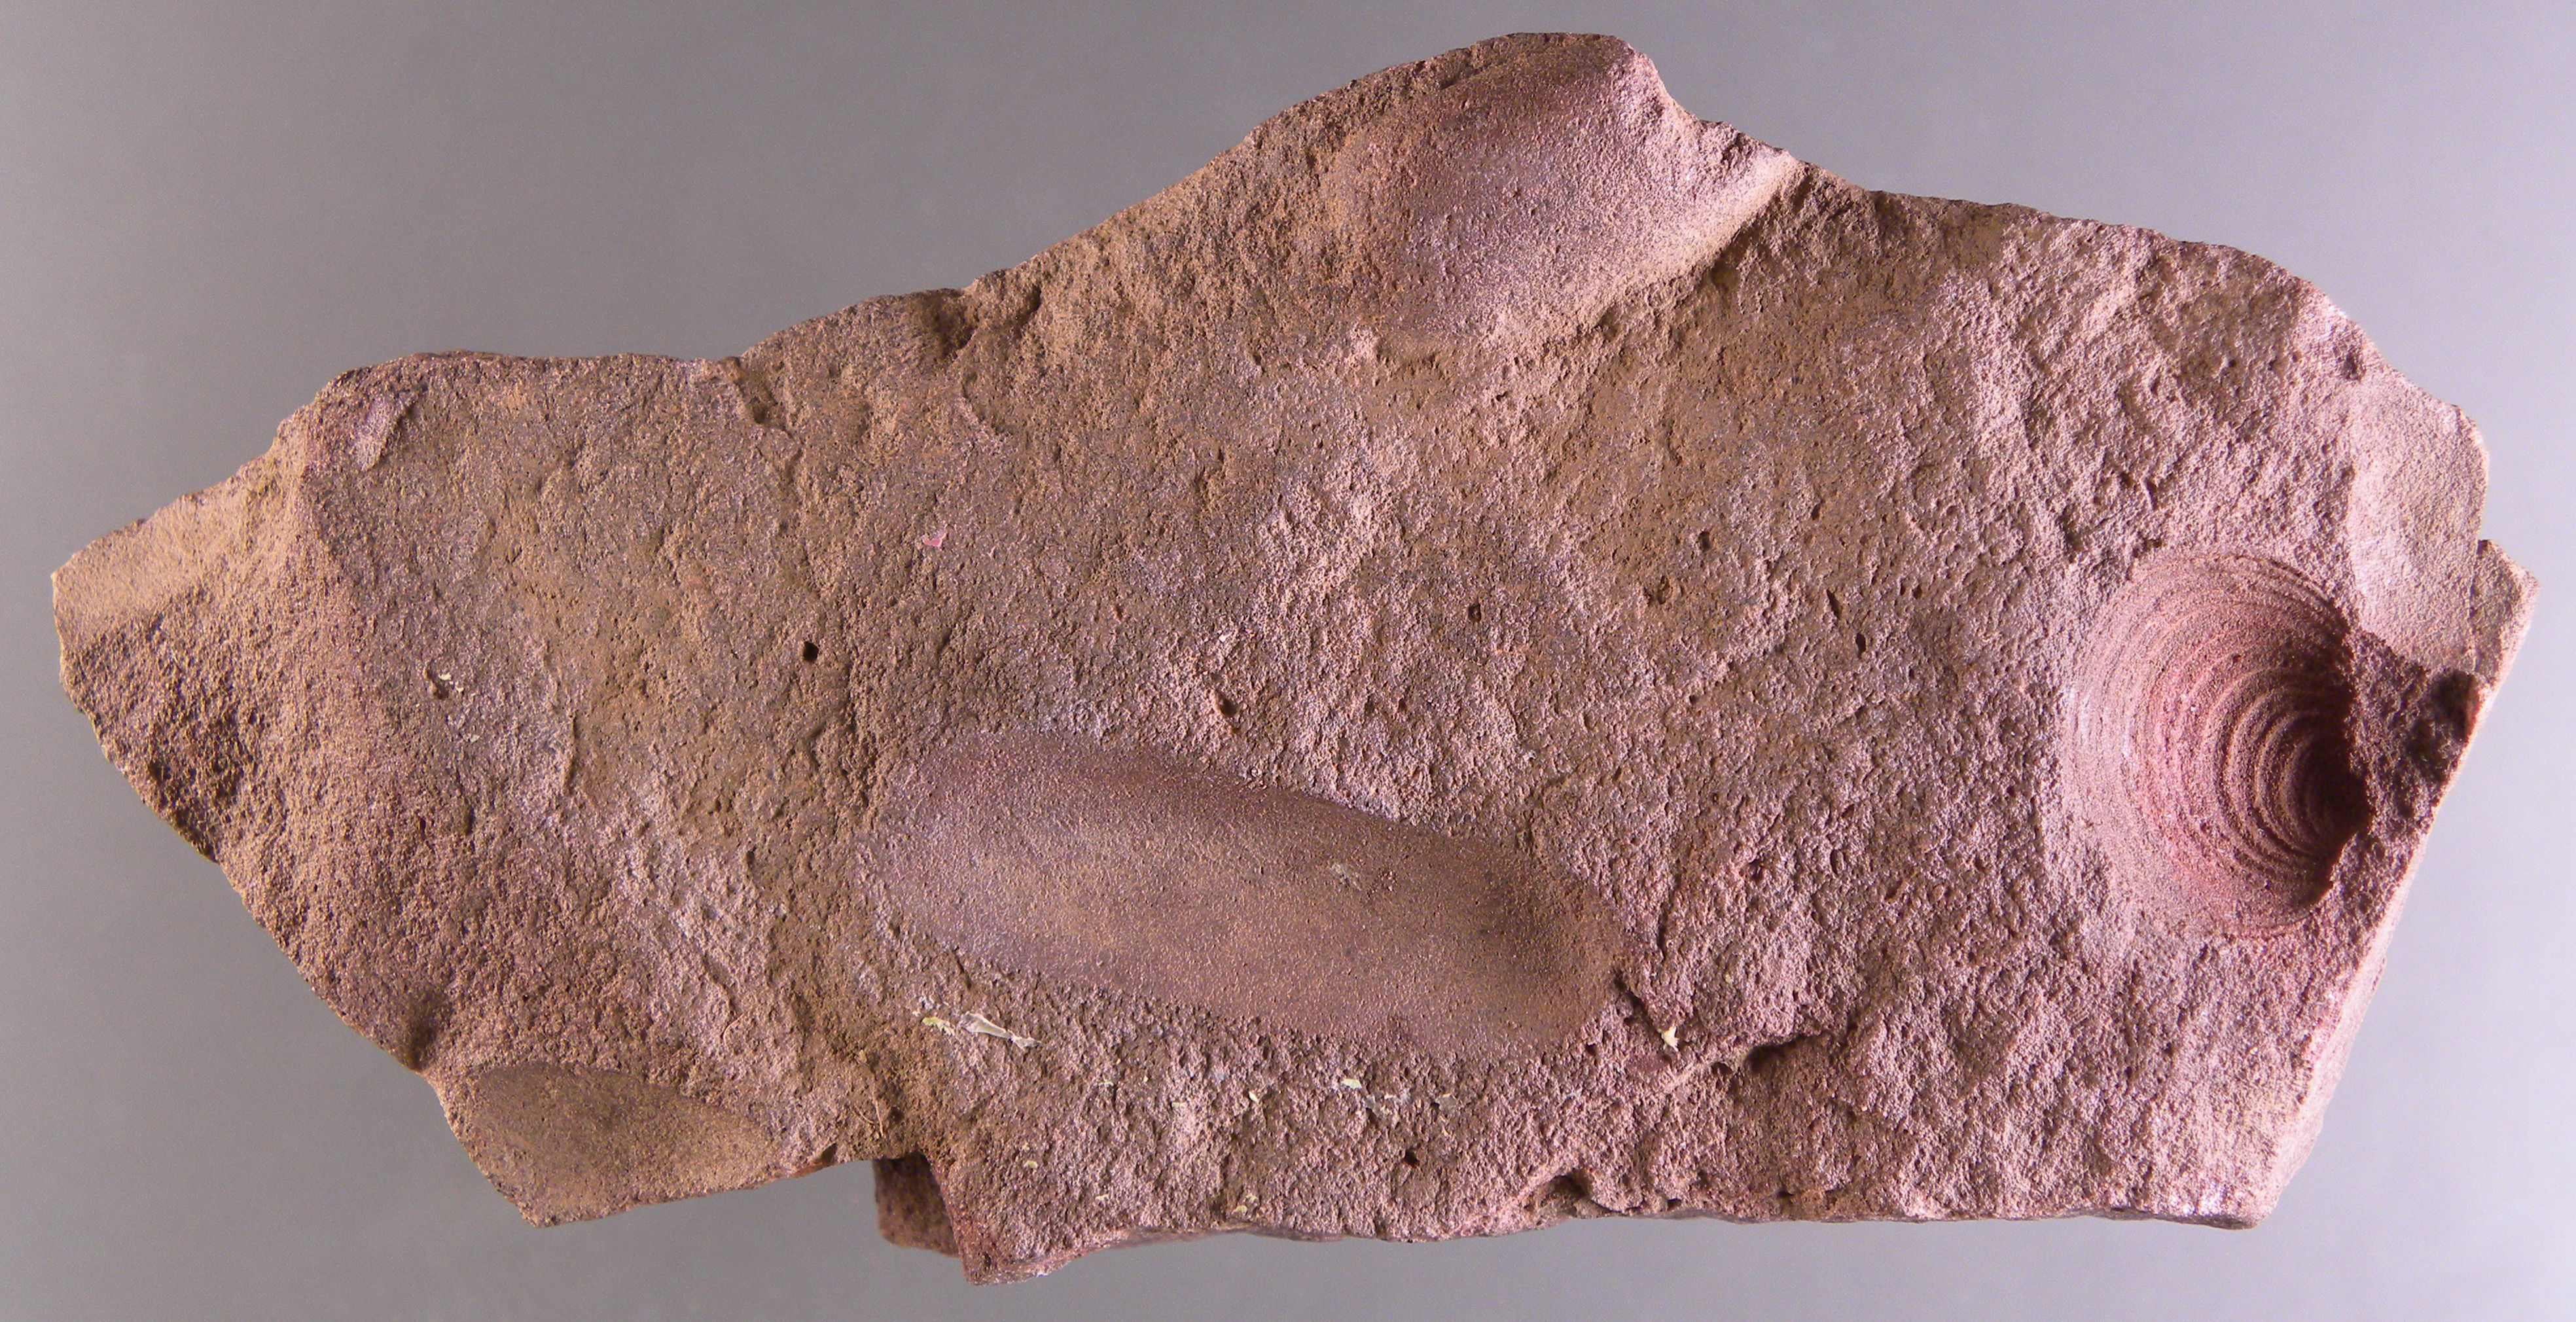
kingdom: Animalia
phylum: Mollusca
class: Bivalvia
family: Orthonotidae
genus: Orthonota
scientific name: Orthonota
